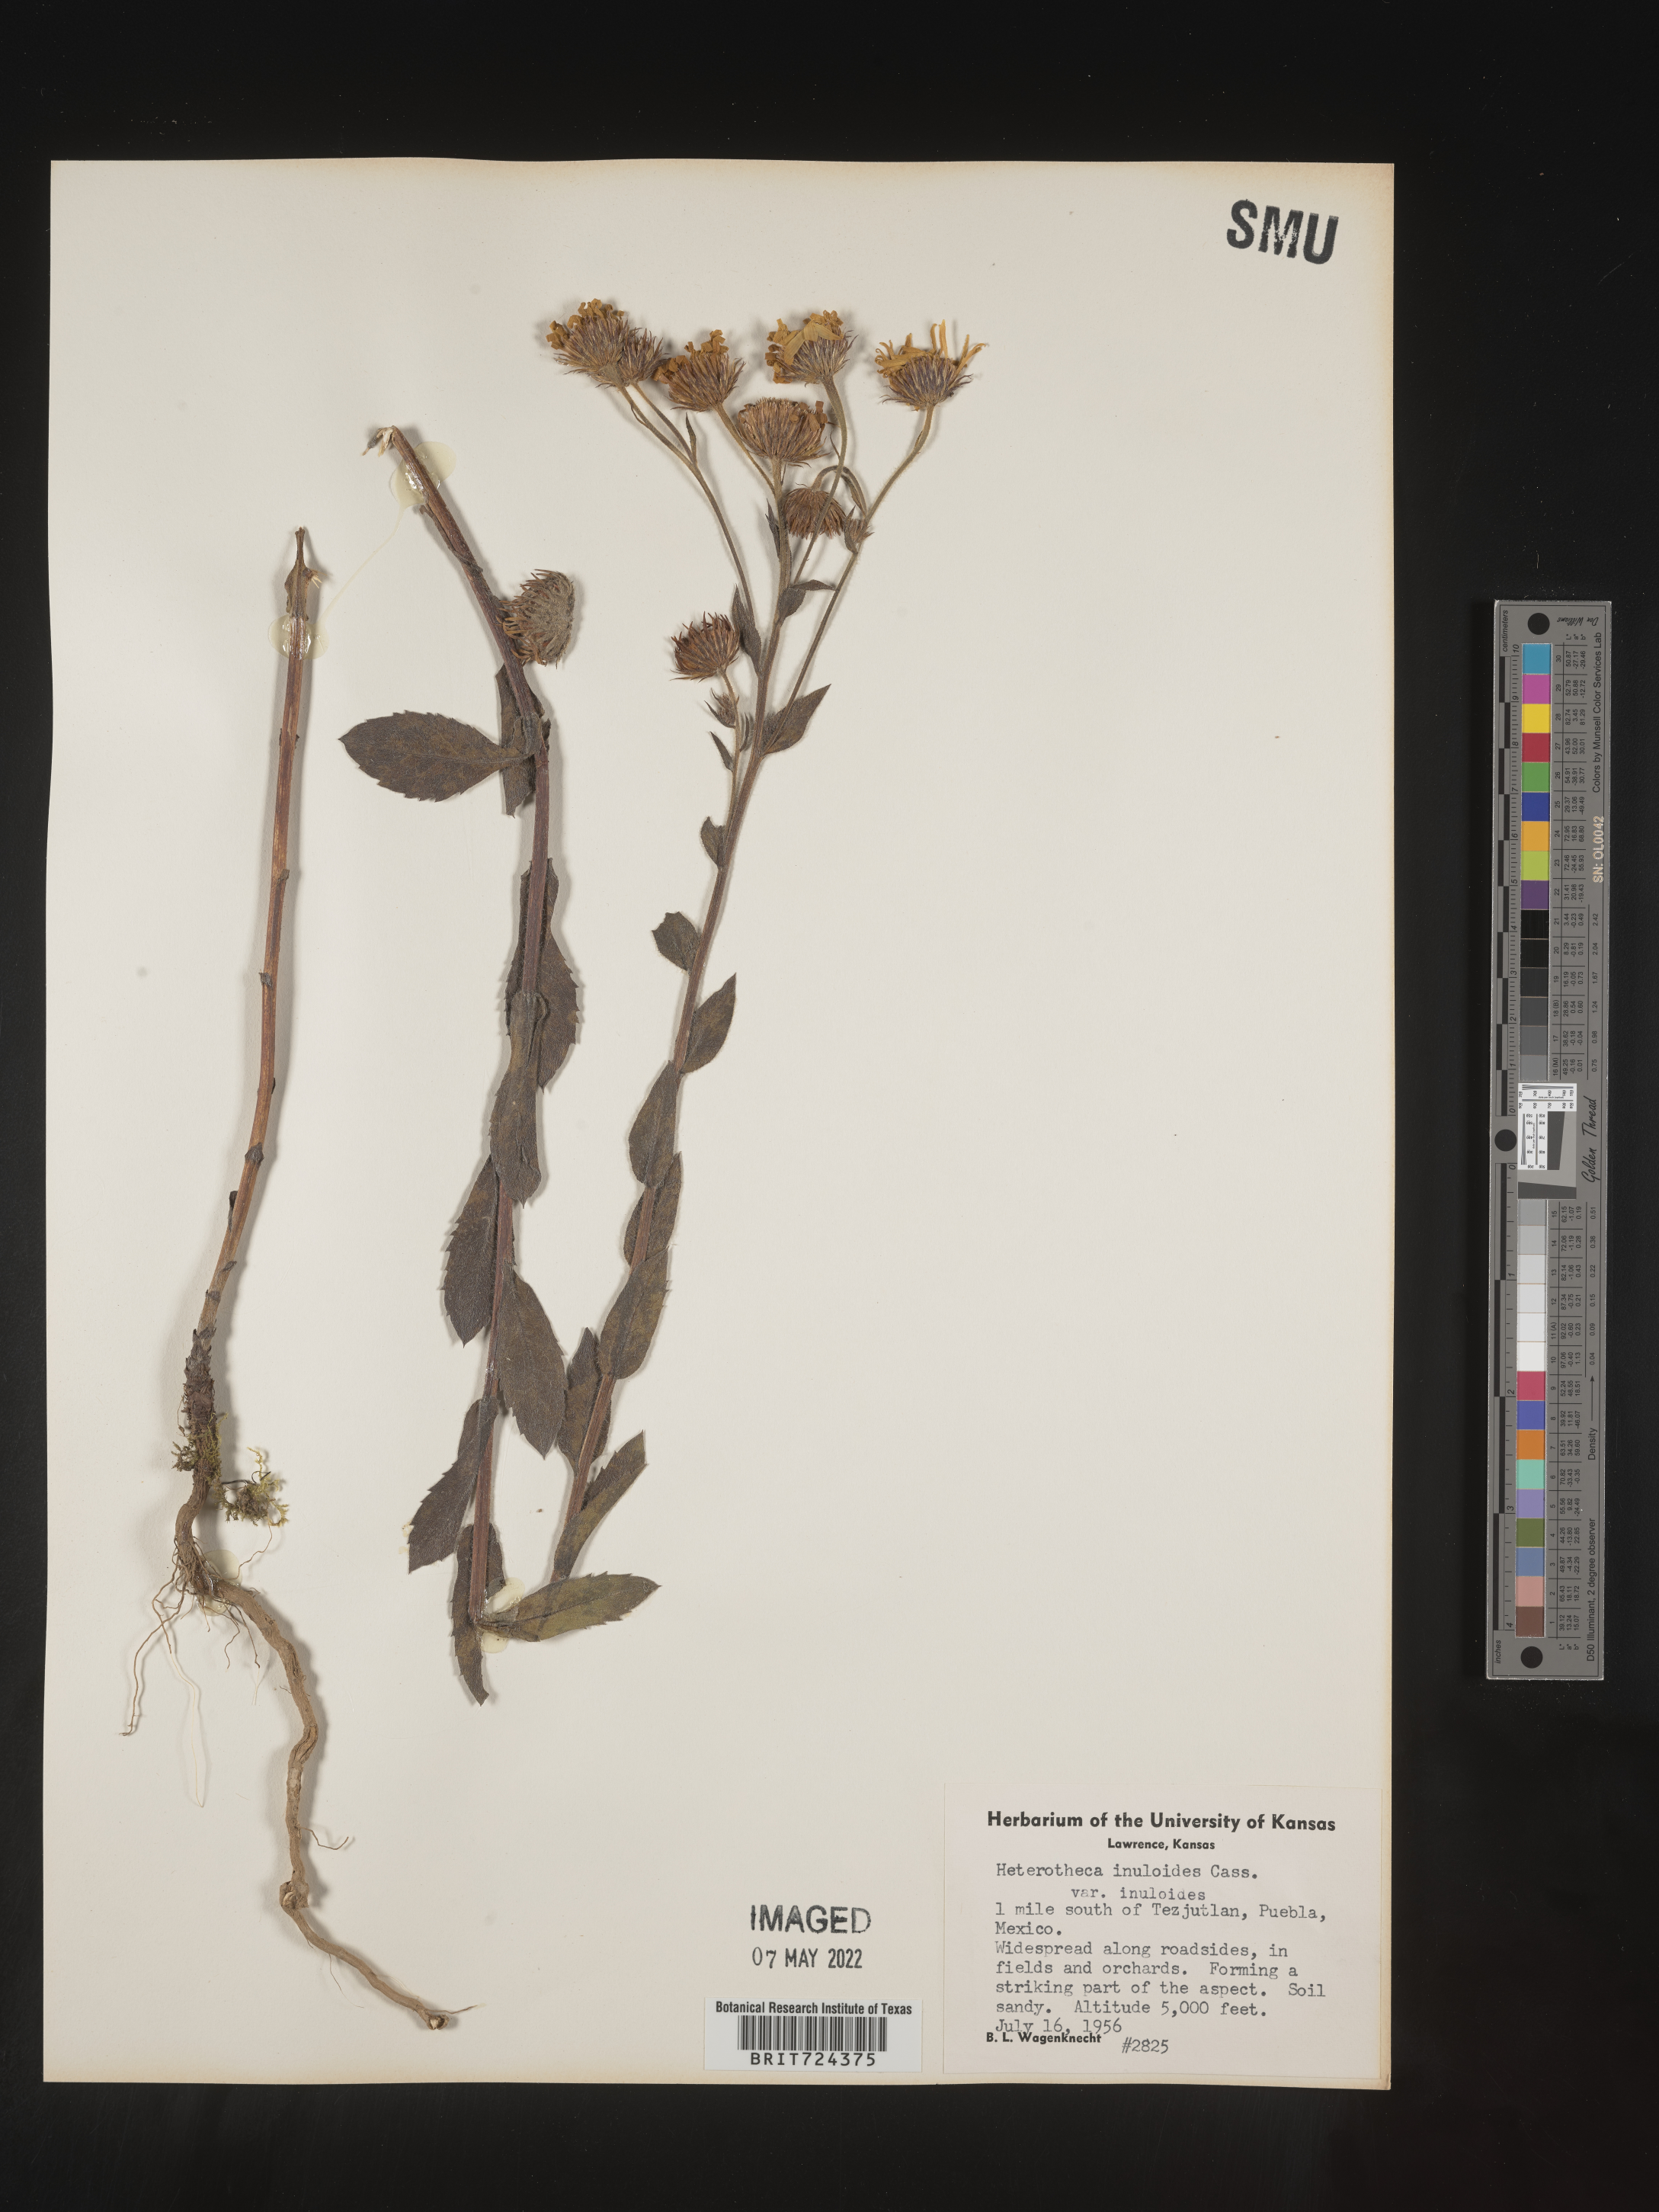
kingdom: Plantae
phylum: Tracheophyta
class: Magnoliopsida
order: Asterales
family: Asteraceae
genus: Heterotheca
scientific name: Heterotheca inuloides
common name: False arnica
